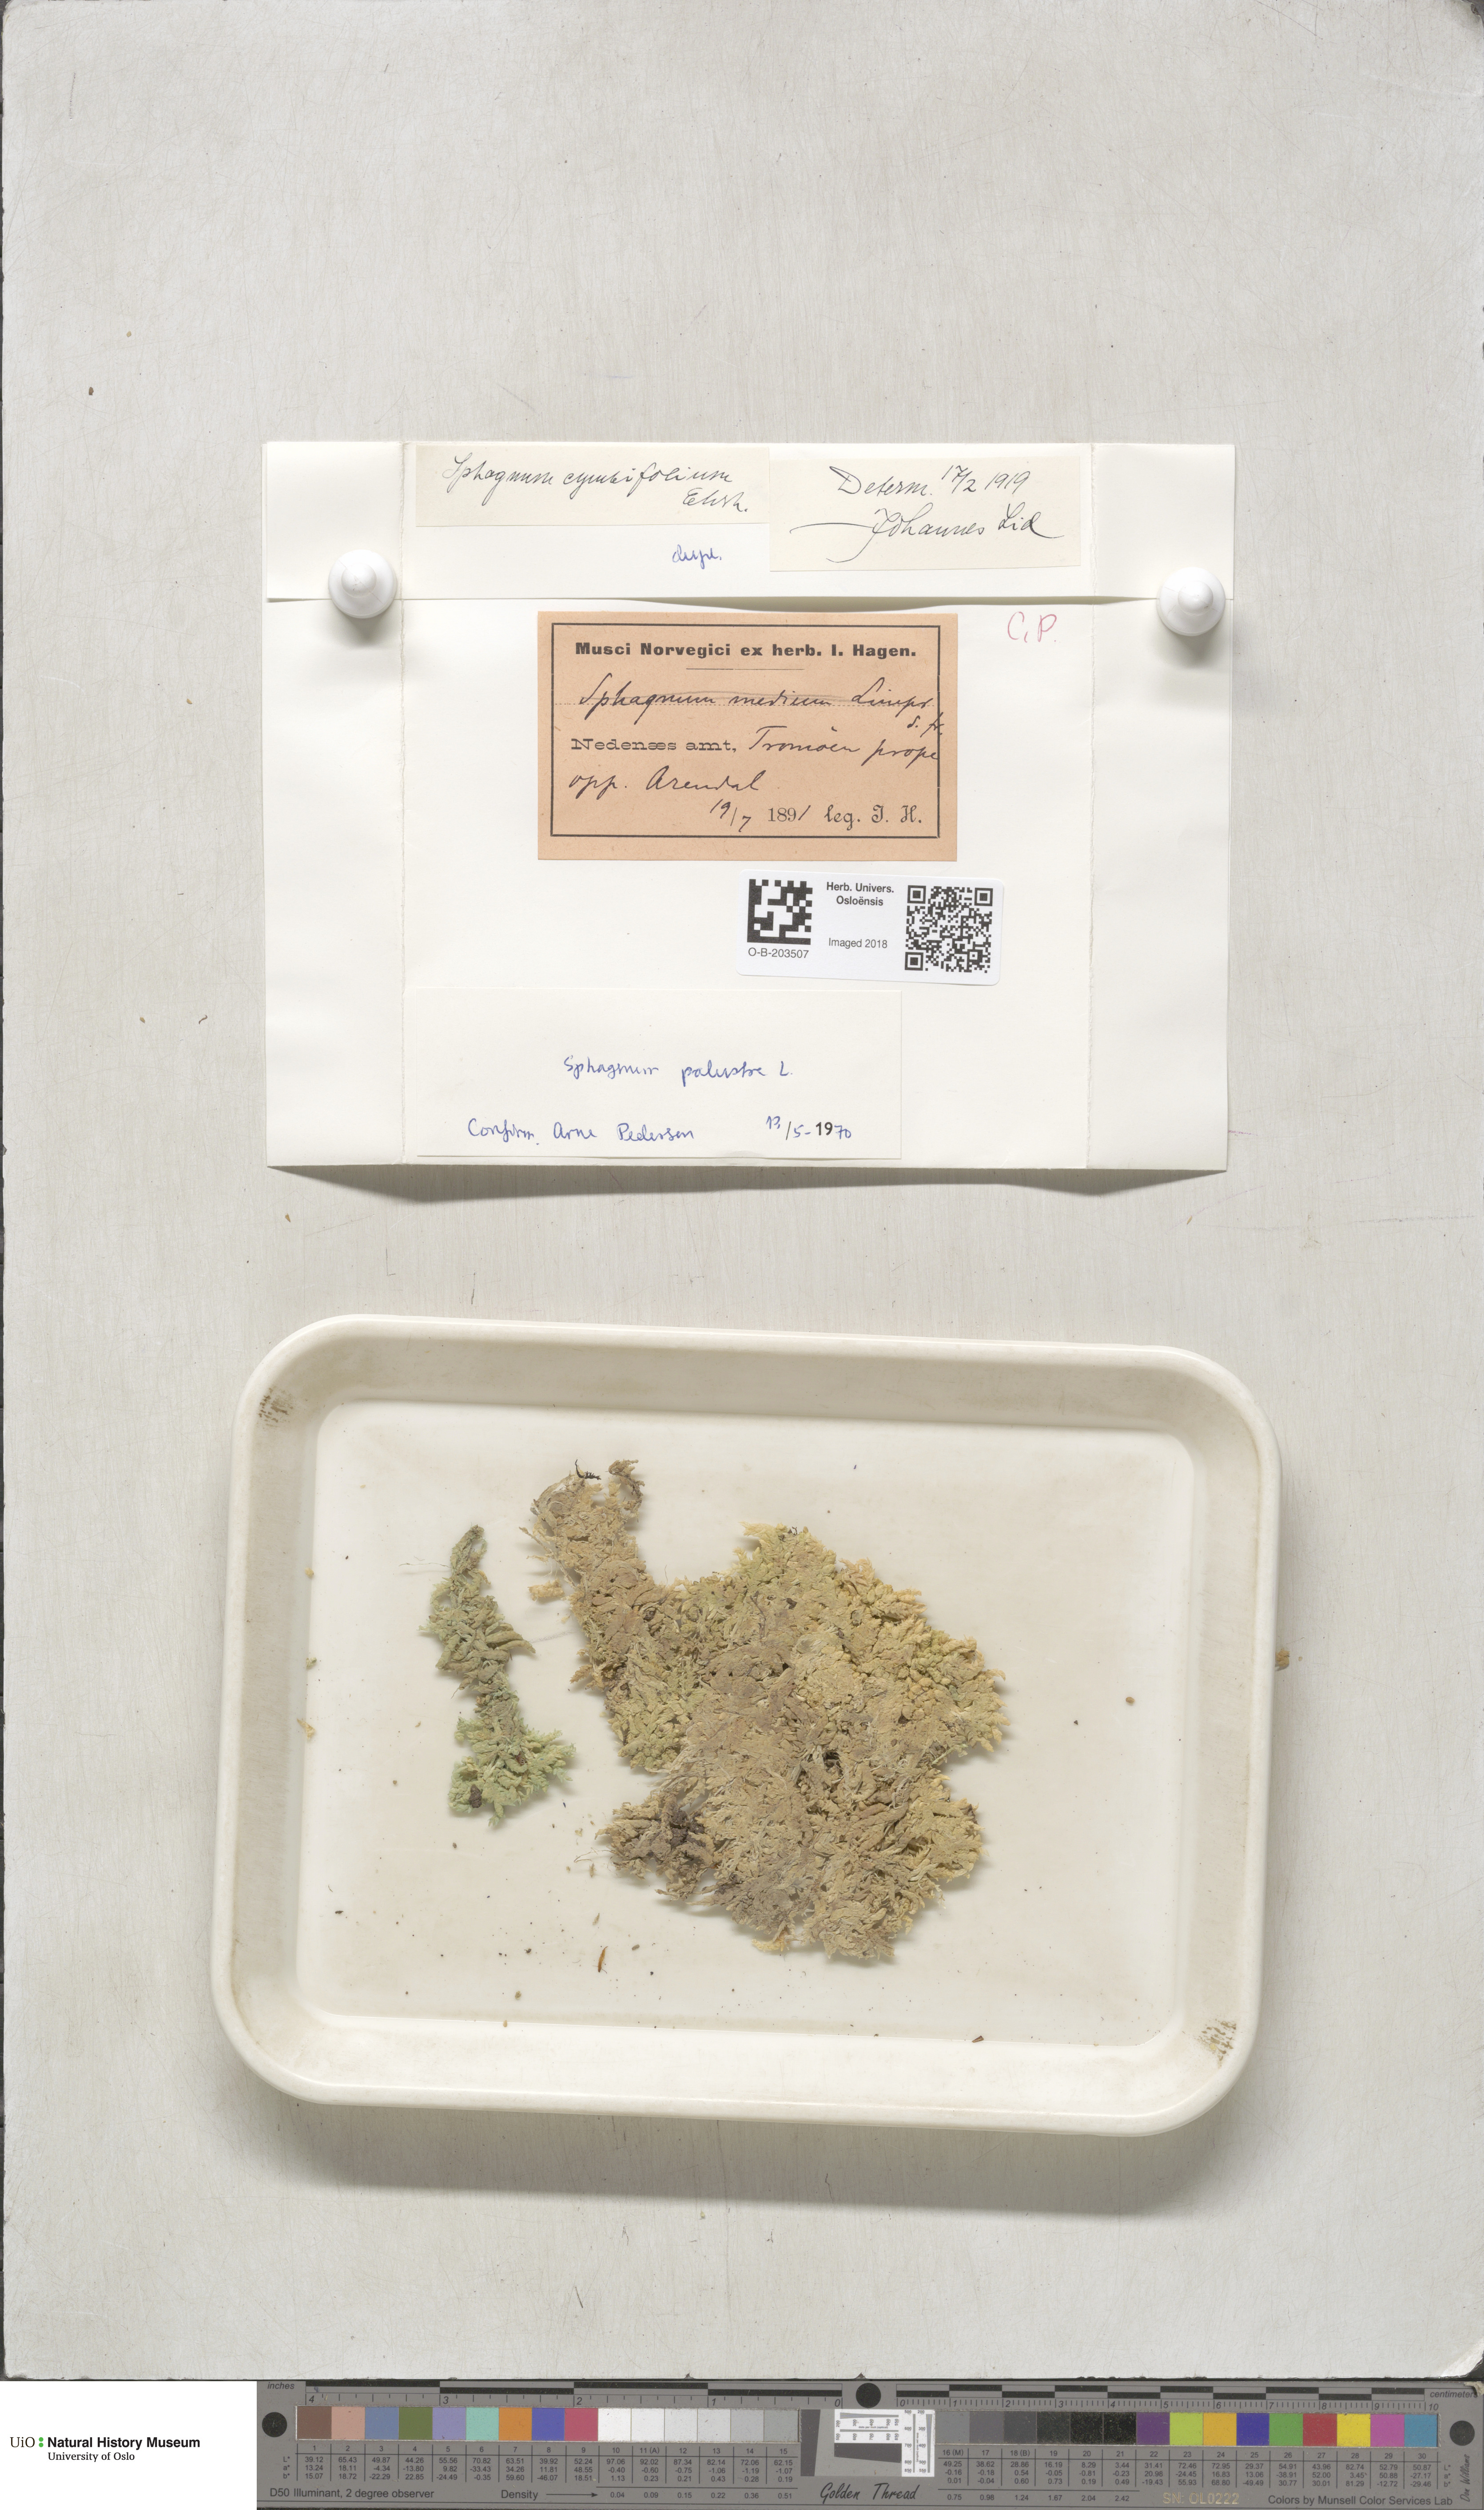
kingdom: Plantae
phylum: Bryophyta
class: Sphagnopsida
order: Sphagnales
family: Sphagnaceae
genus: Sphagnum
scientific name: Sphagnum palustre
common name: Blunt-leaved bog-moss
